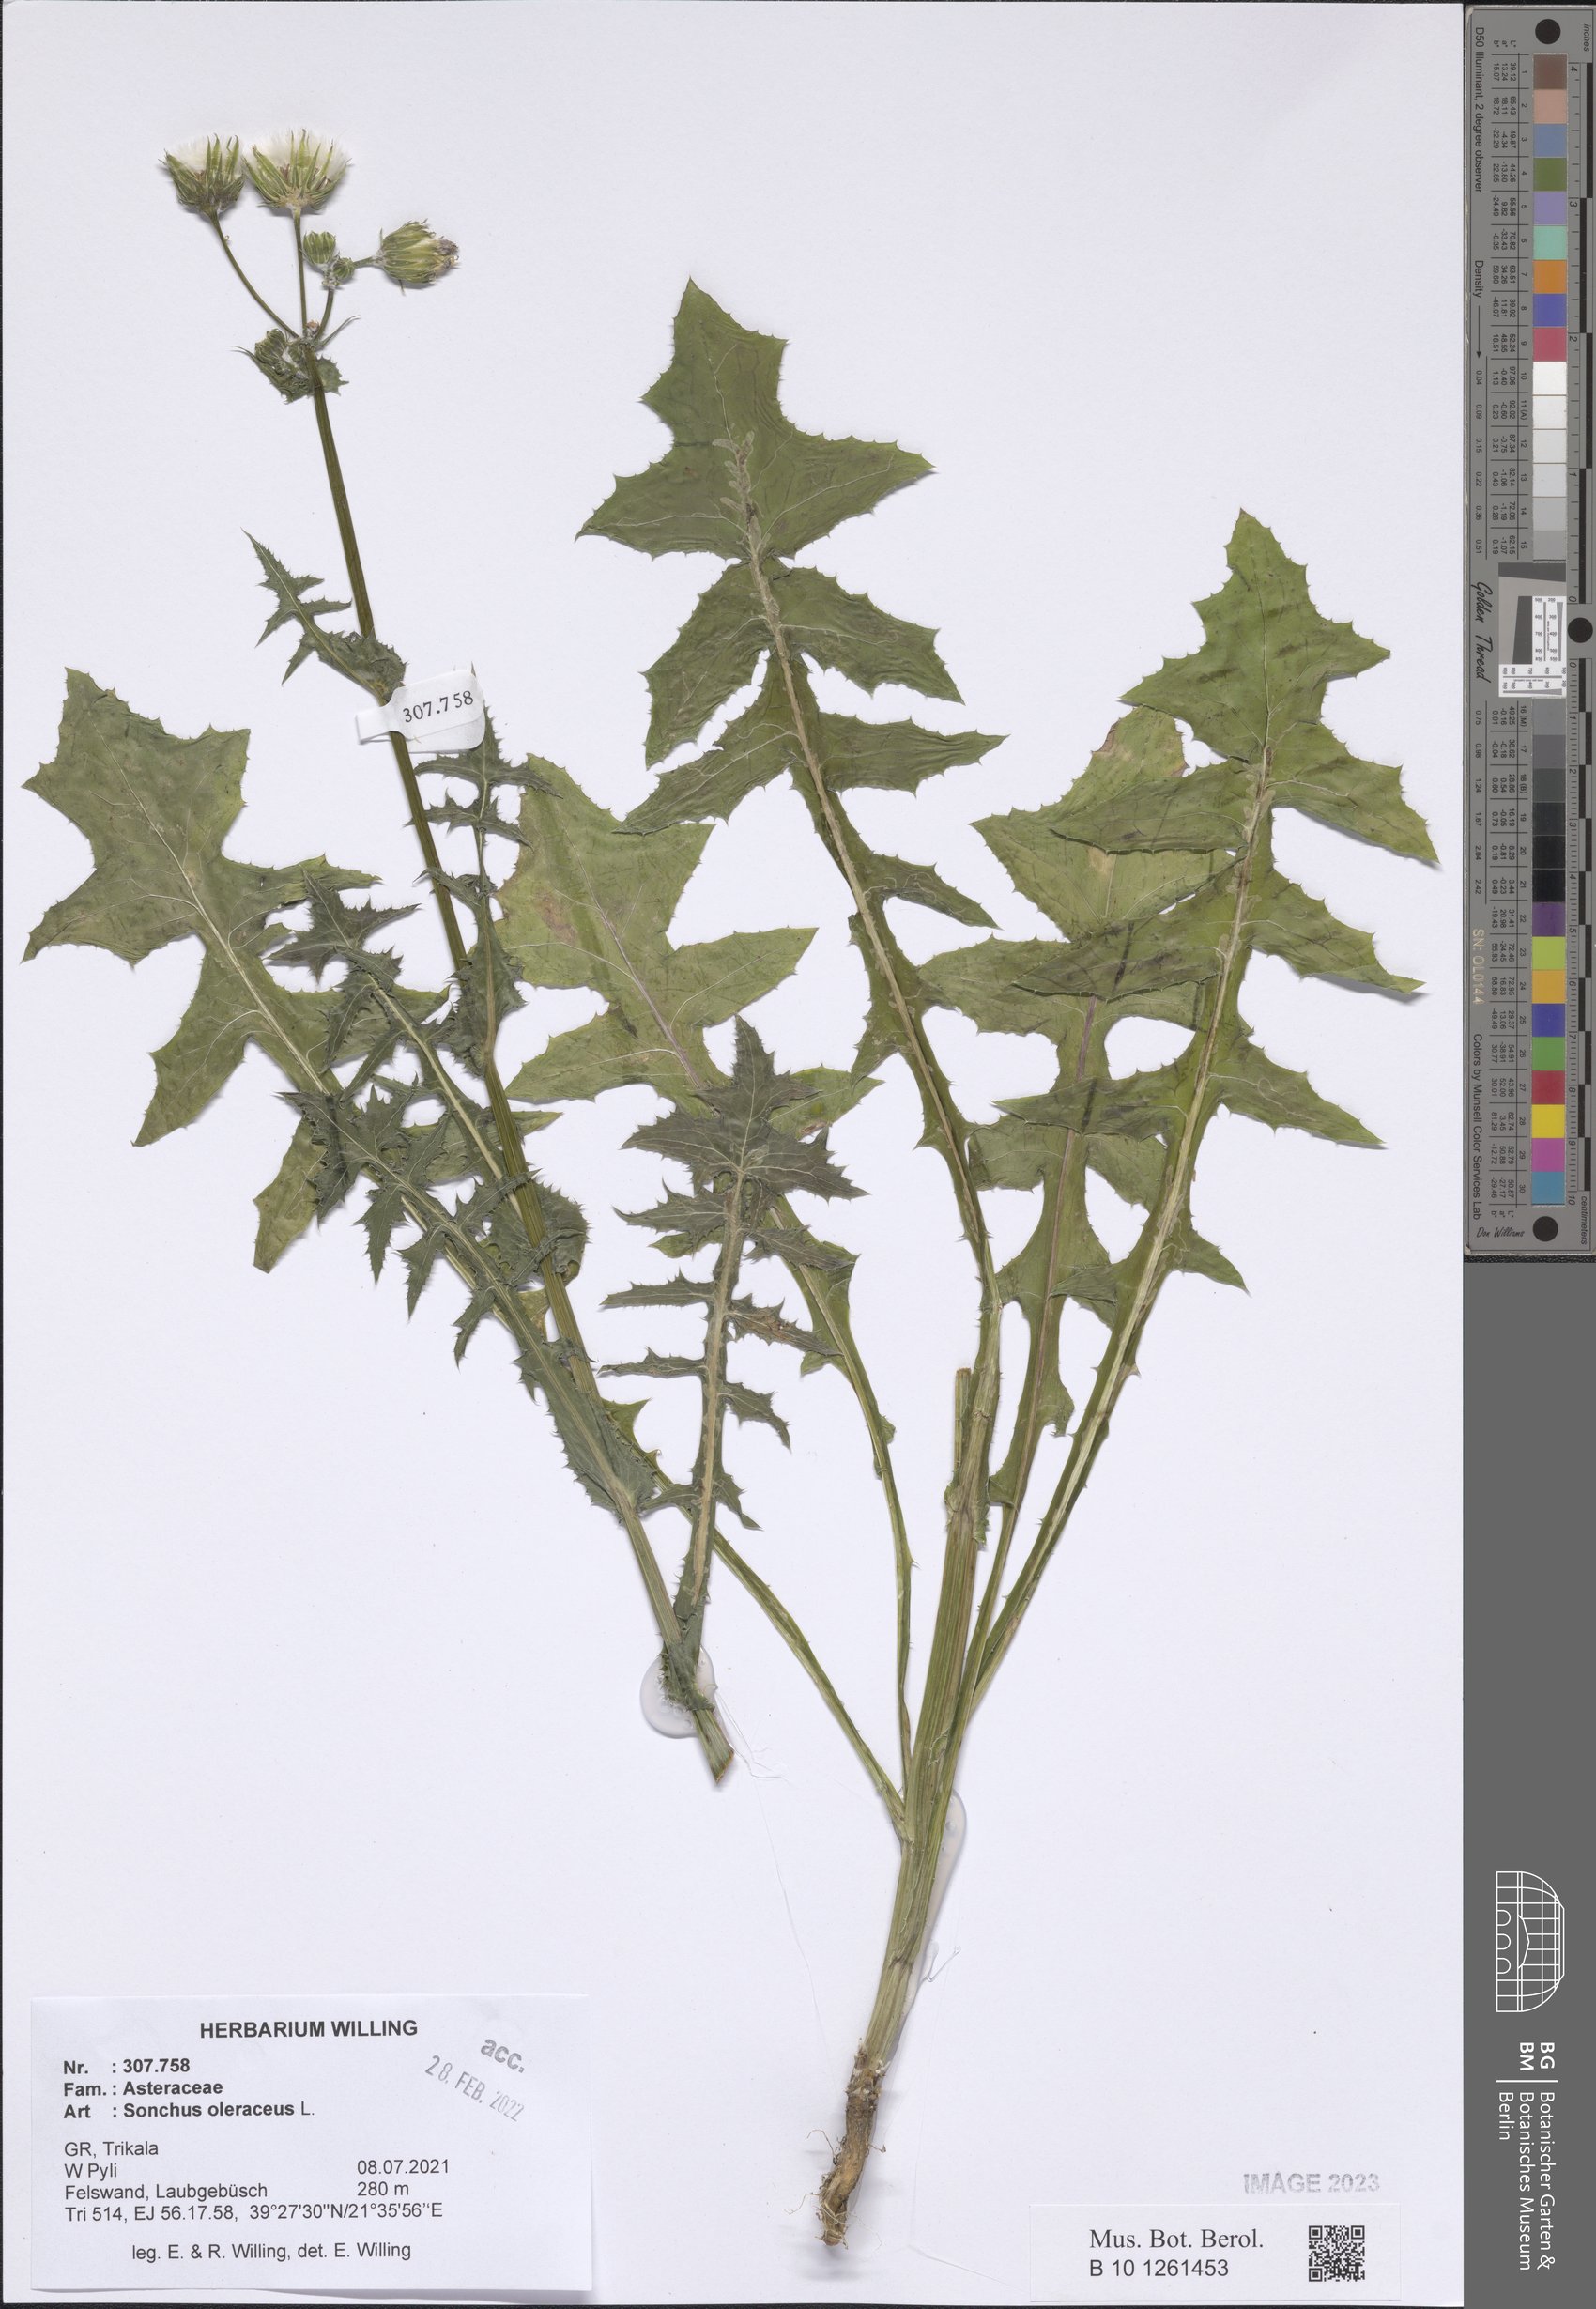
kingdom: Plantae
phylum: Tracheophyta
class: Magnoliopsida
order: Asterales
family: Asteraceae
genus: Sonchus
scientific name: Sonchus oleraceus
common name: Common sowthistle
